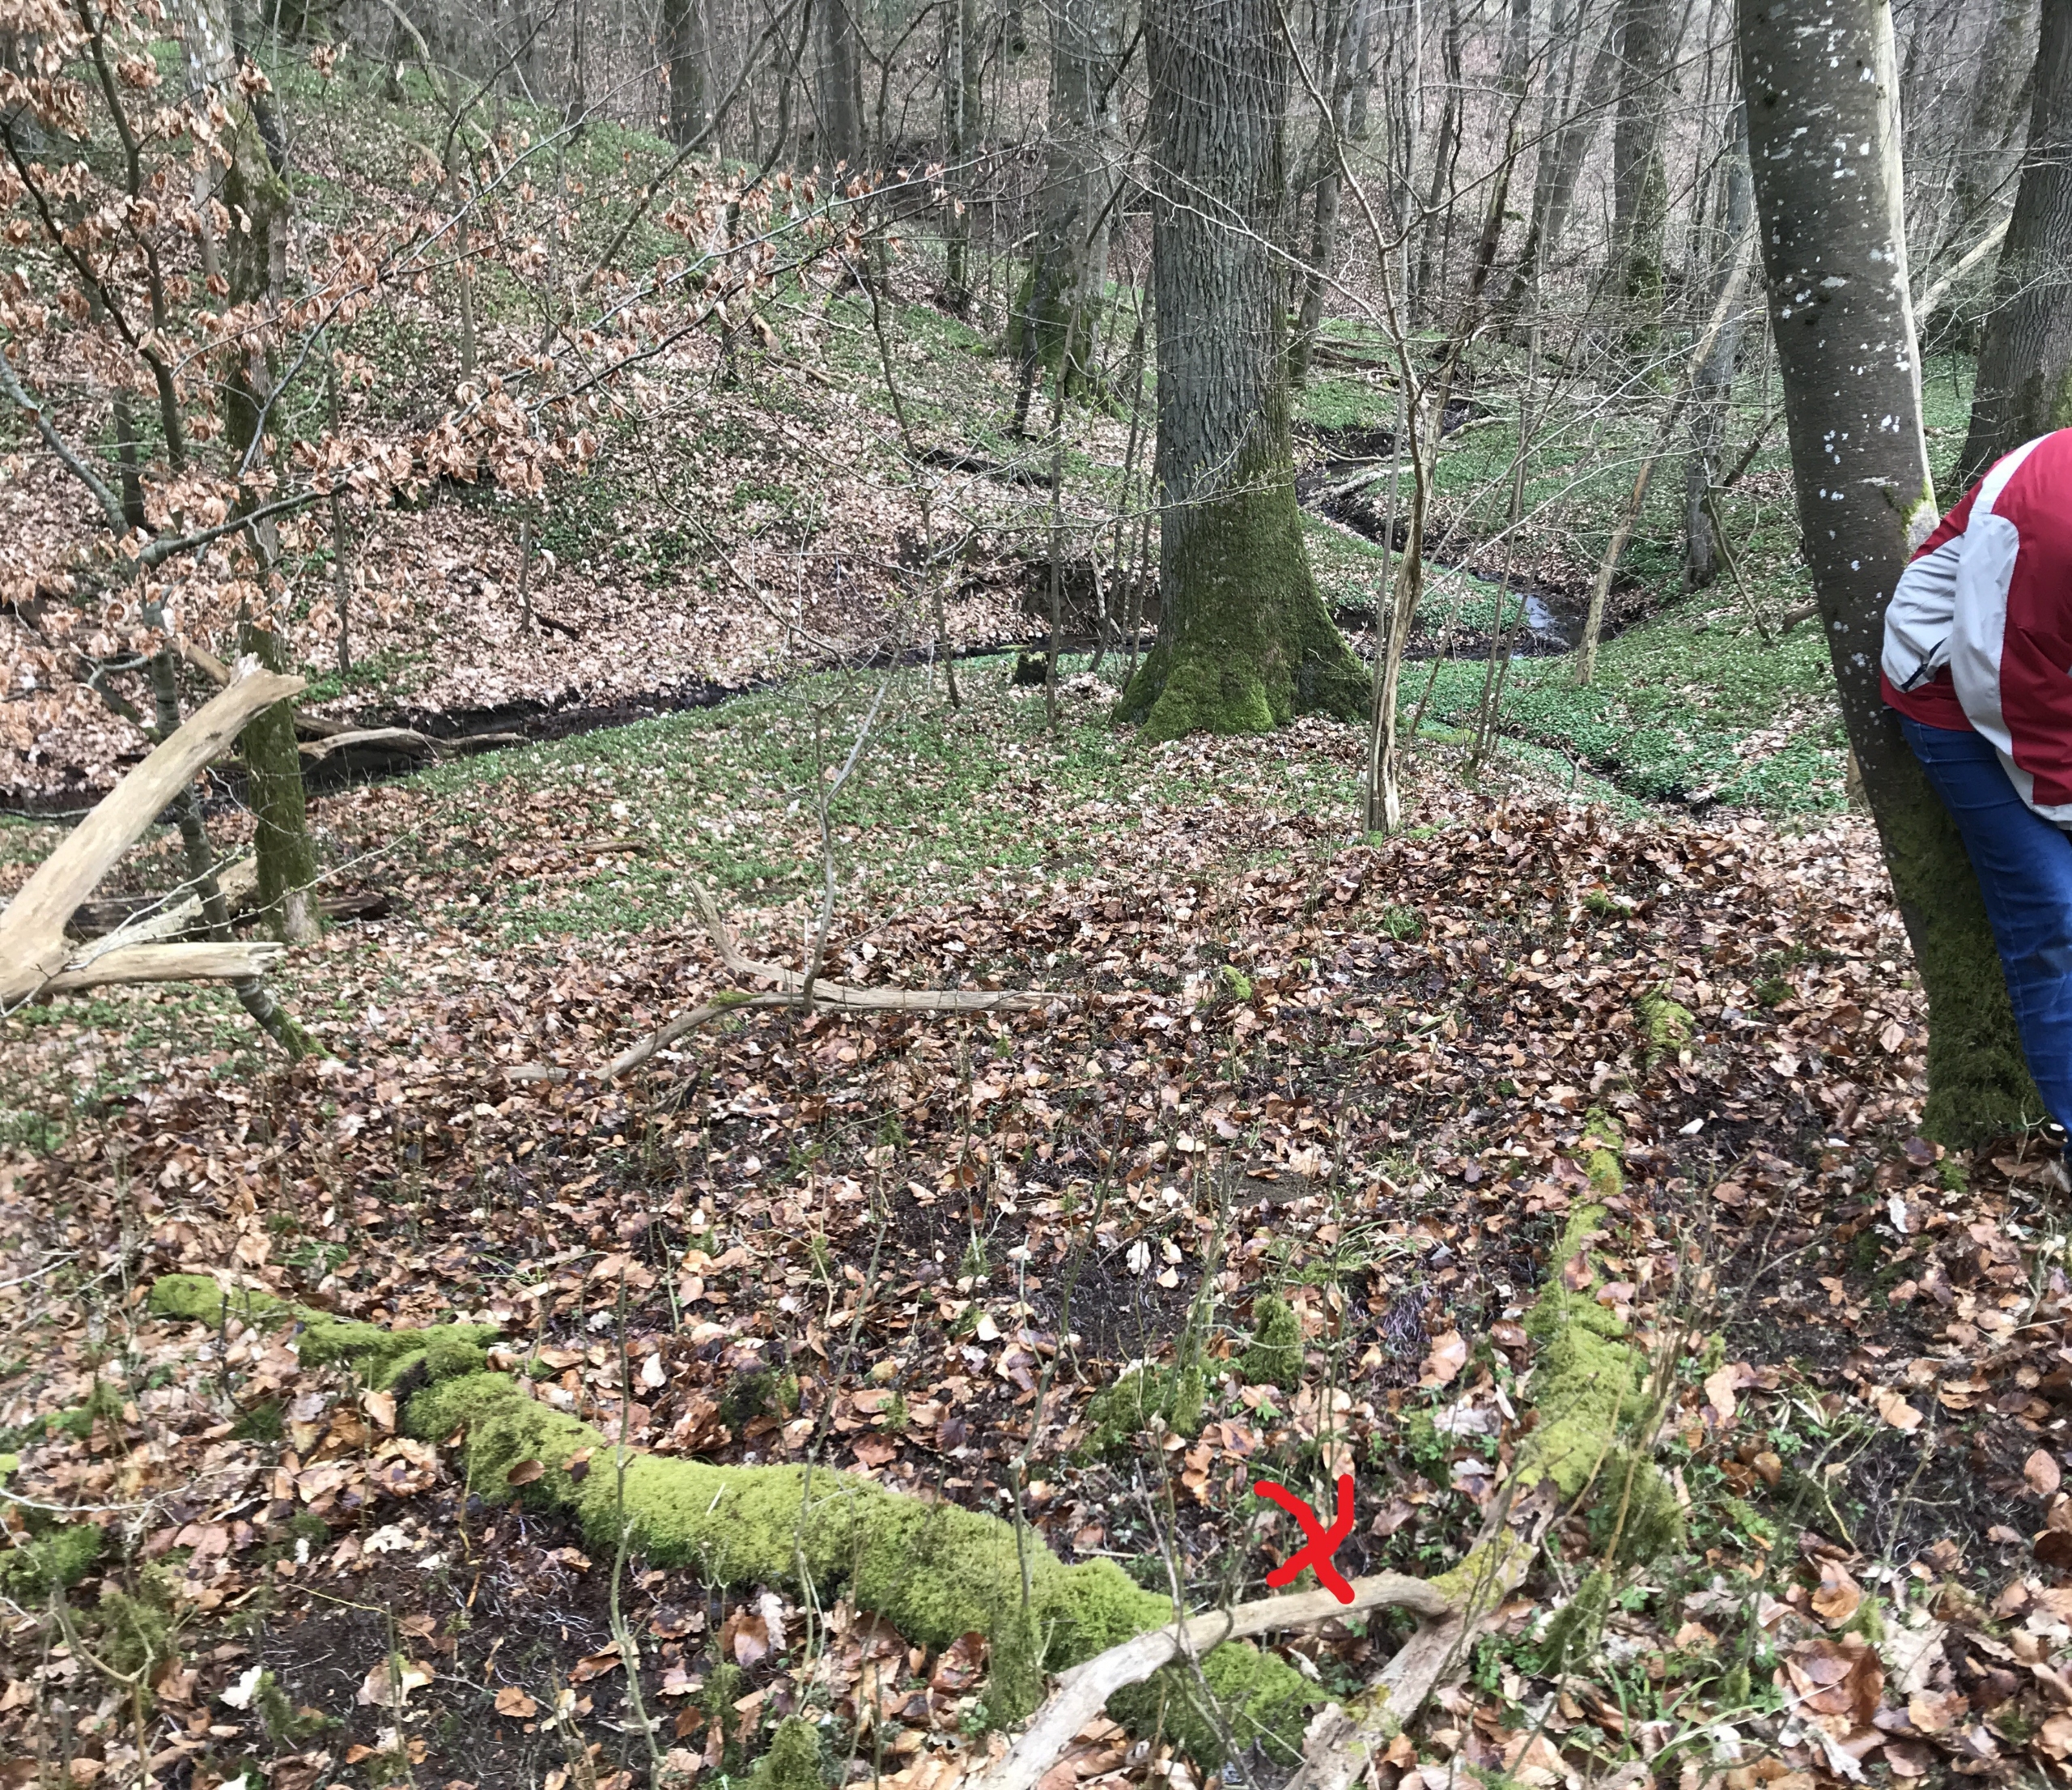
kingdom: Plantae
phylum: Tracheophyta
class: Magnoliopsida
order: Ranunculales
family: Ranunculaceae
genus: Hepatica
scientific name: Hepatica nobilis
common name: Blå anemone
